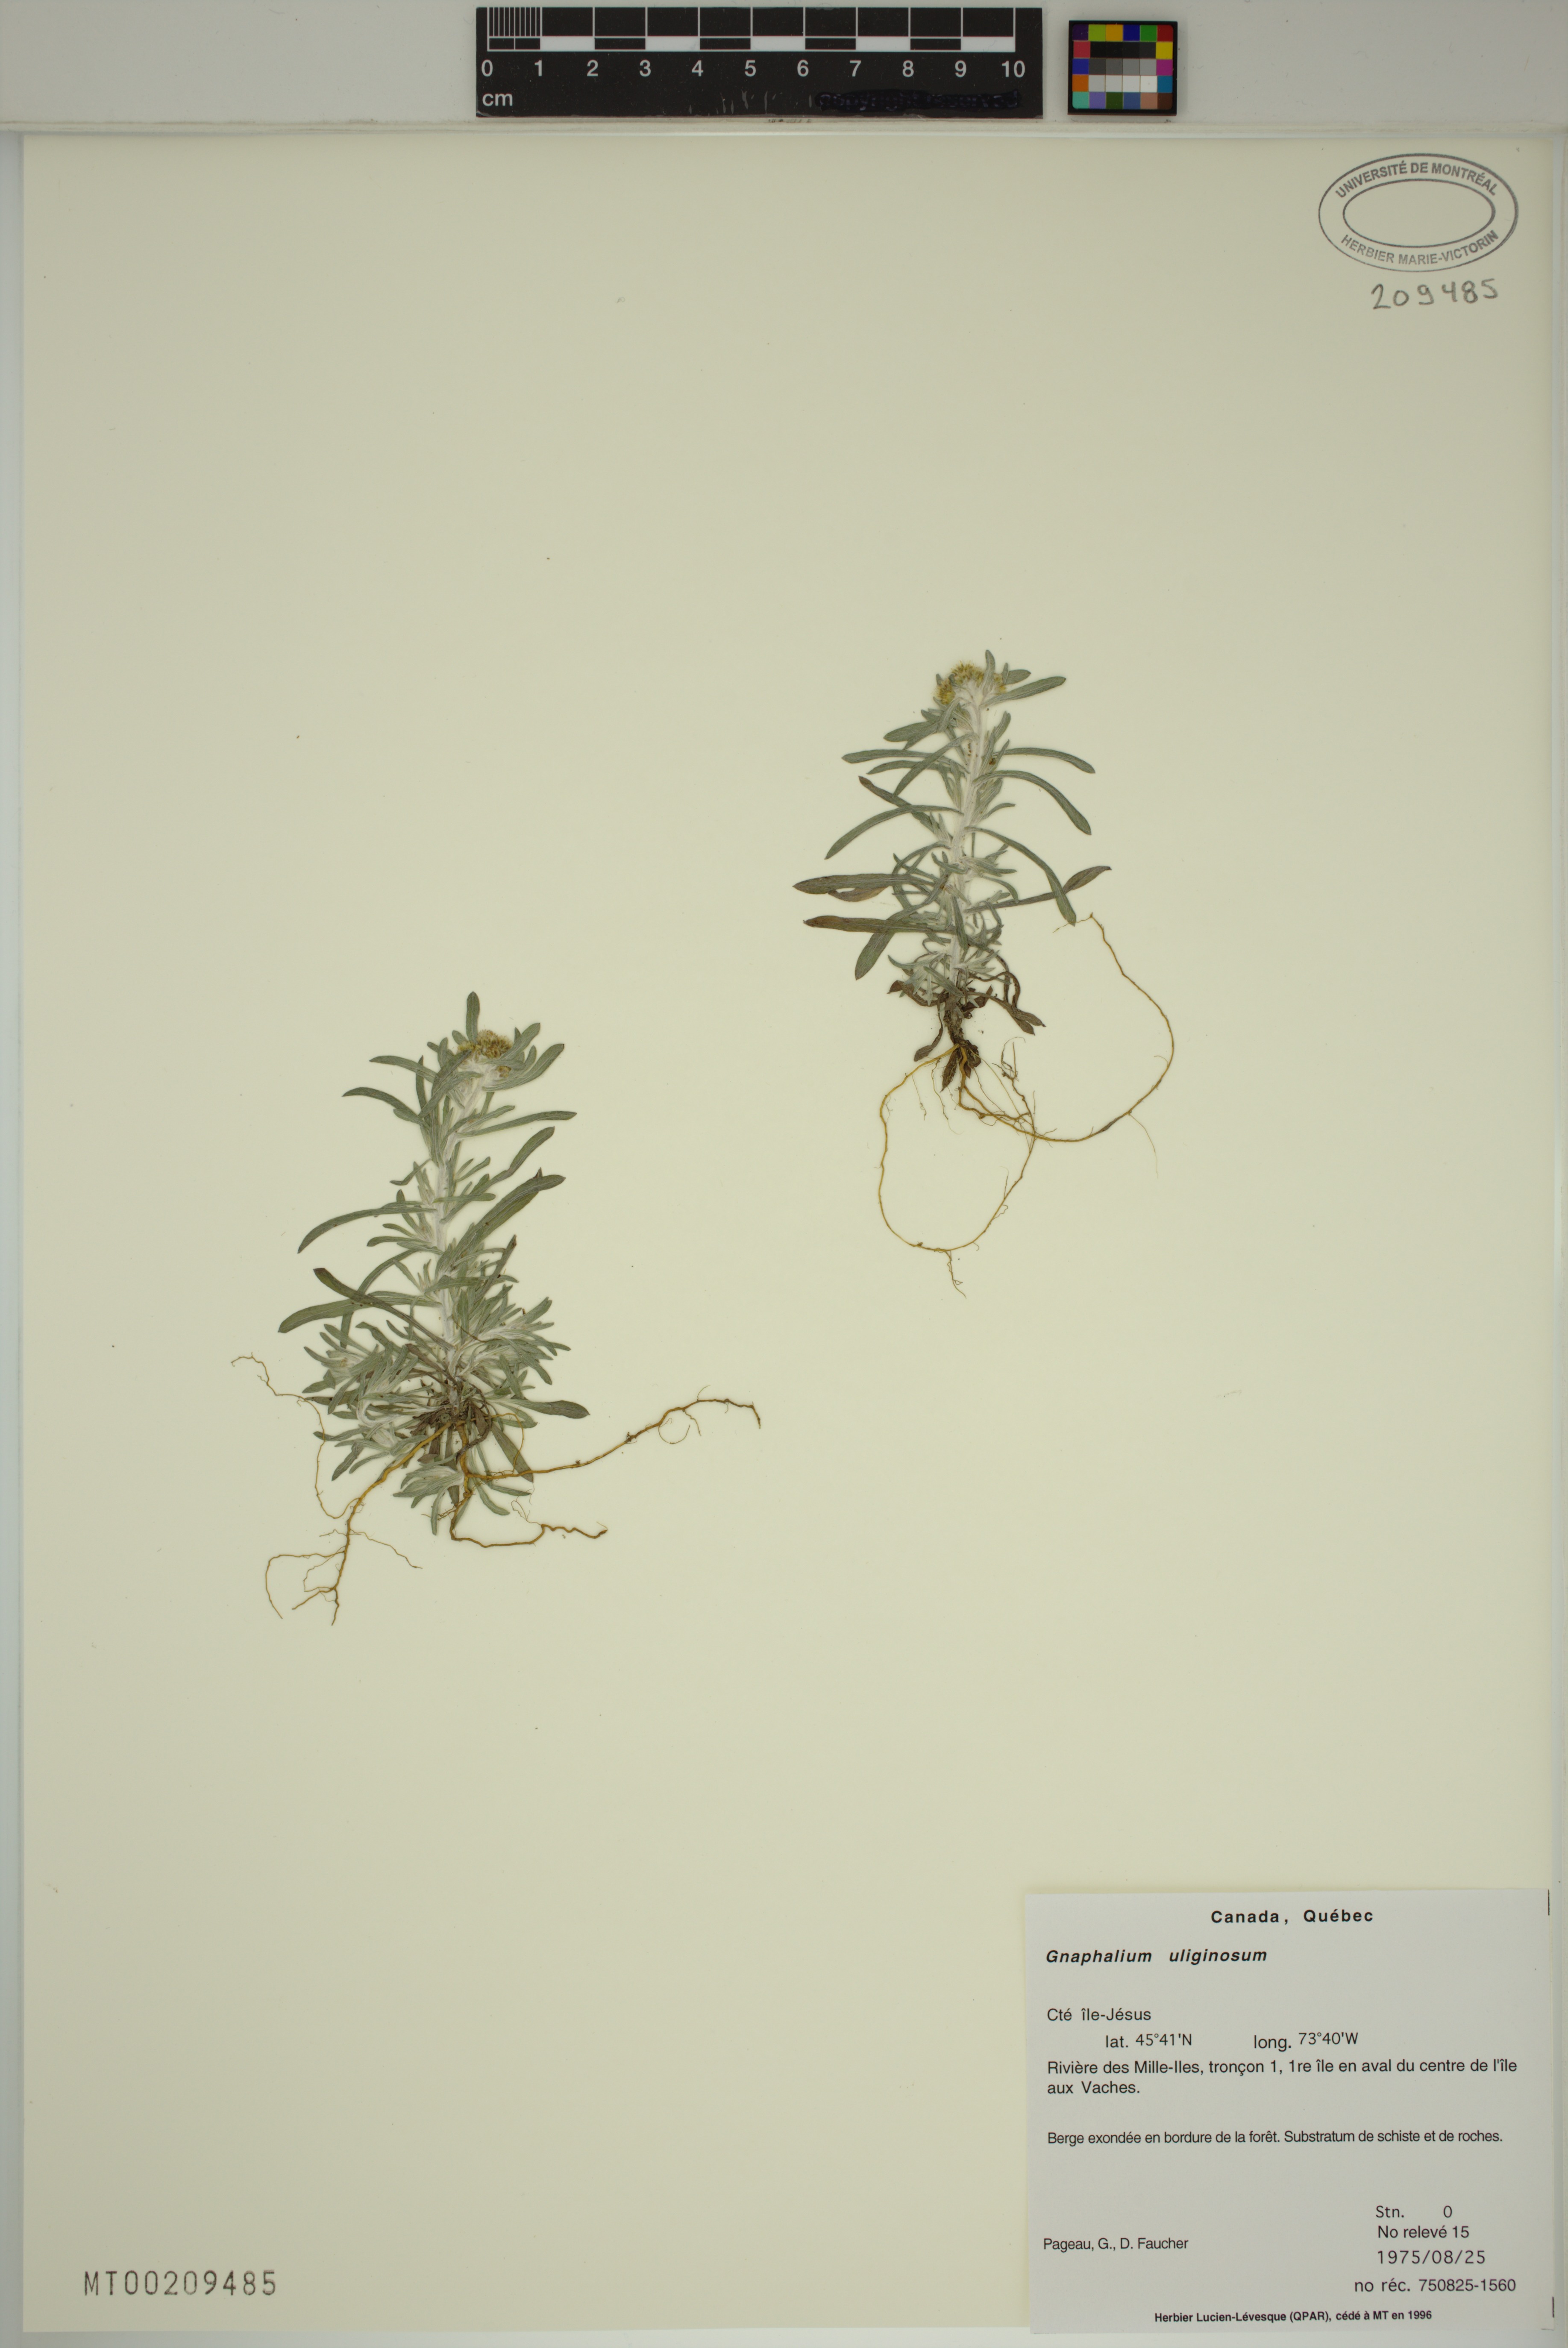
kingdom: Plantae
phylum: Tracheophyta
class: Magnoliopsida
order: Asterales
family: Asteraceae
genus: Gnaphalium
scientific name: Gnaphalium uliginosum
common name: Marsh cudweed
